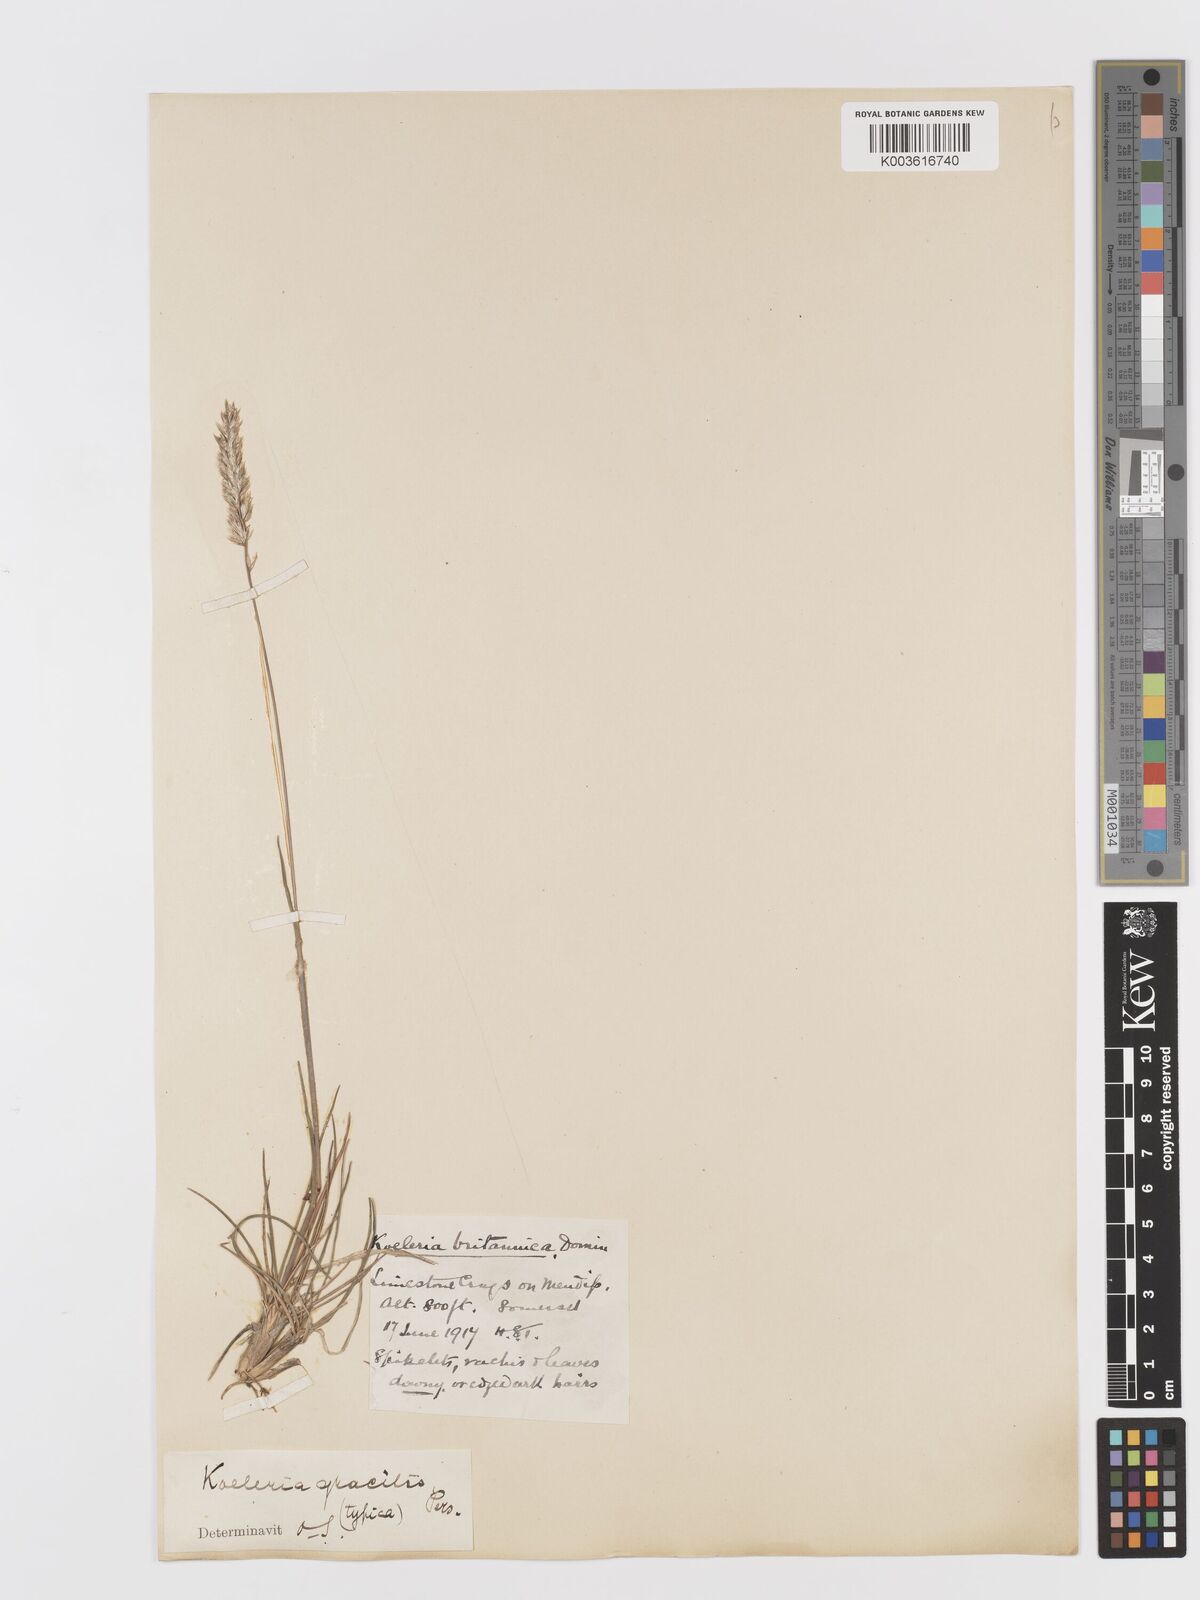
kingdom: Plantae
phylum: Tracheophyta
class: Liliopsida
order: Poales
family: Poaceae
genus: Koeleria
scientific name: Koeleria
